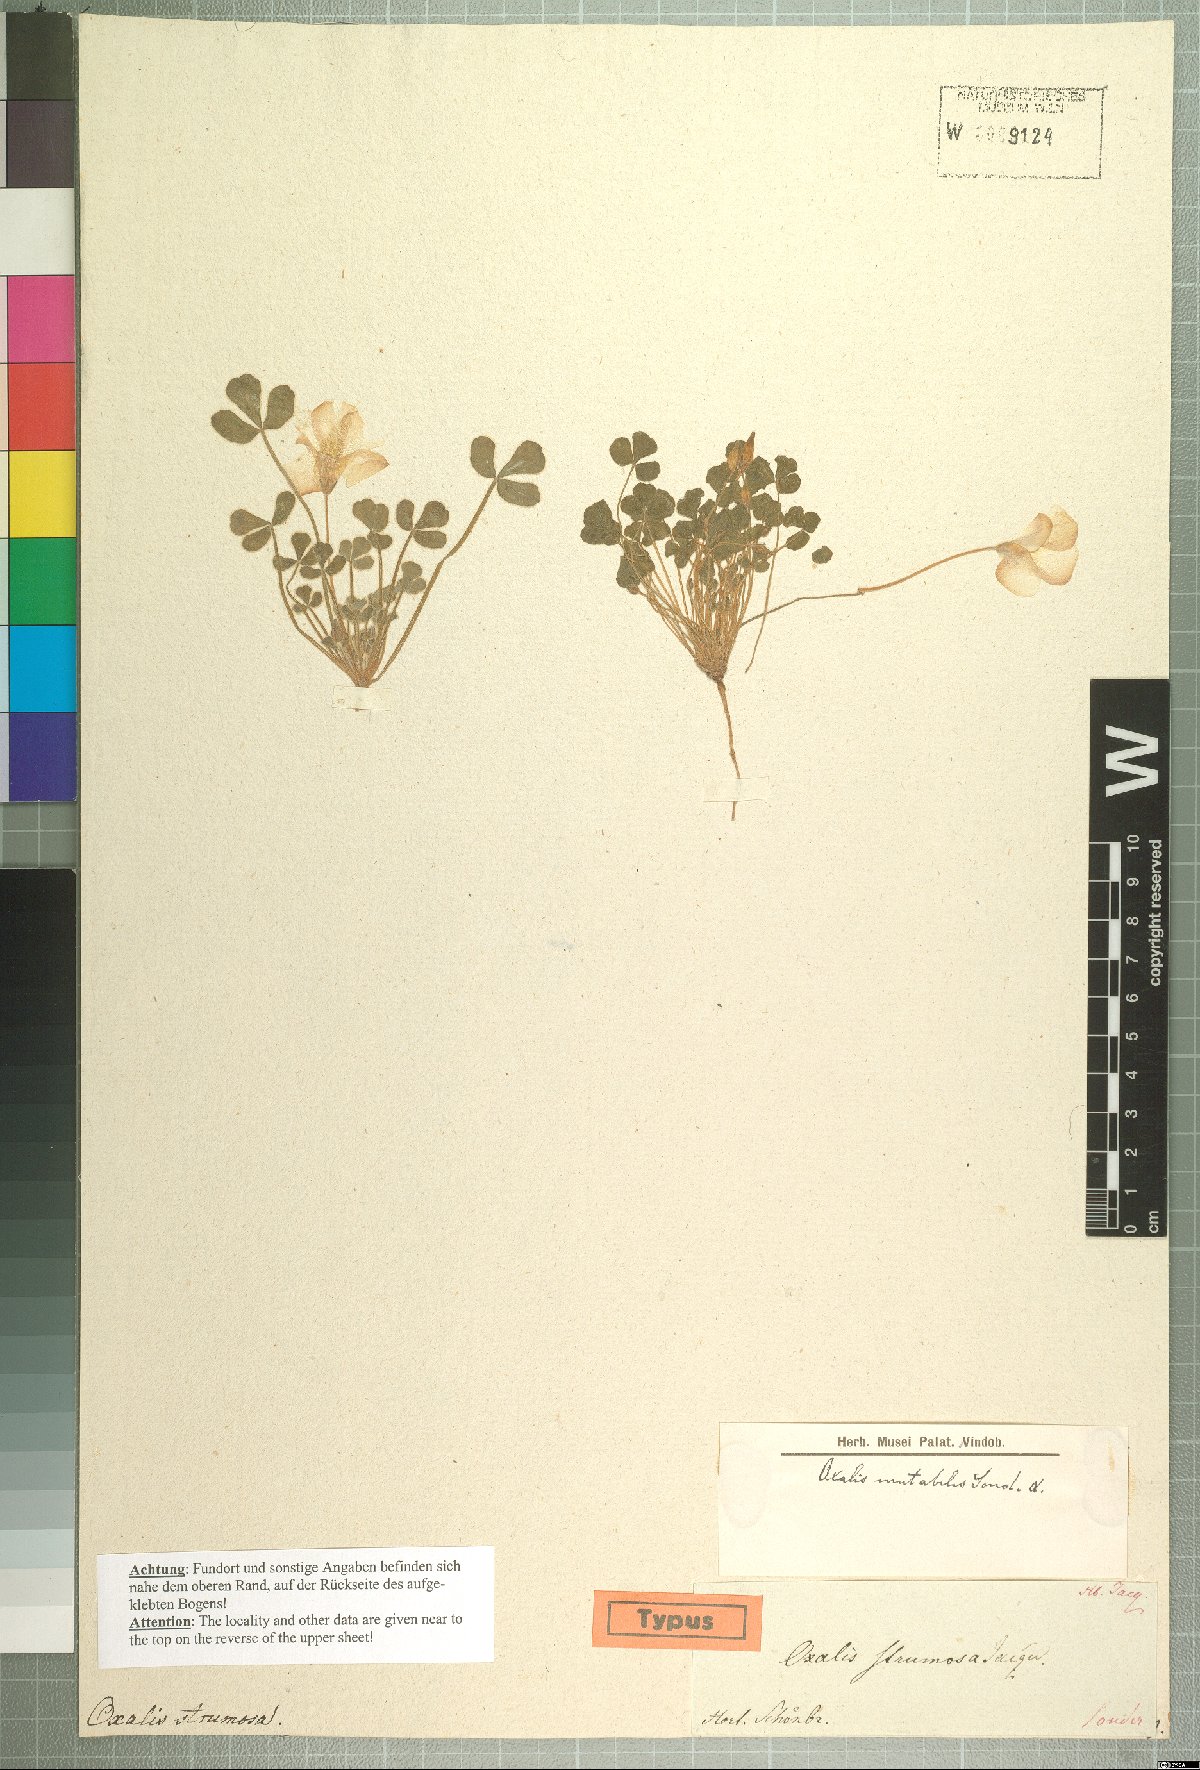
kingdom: Plantae
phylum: Tracheophyta
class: Magnoliopsida
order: Oxalidales
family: Oxalidaceae
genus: Oxalis
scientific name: Oxalis ambigua
